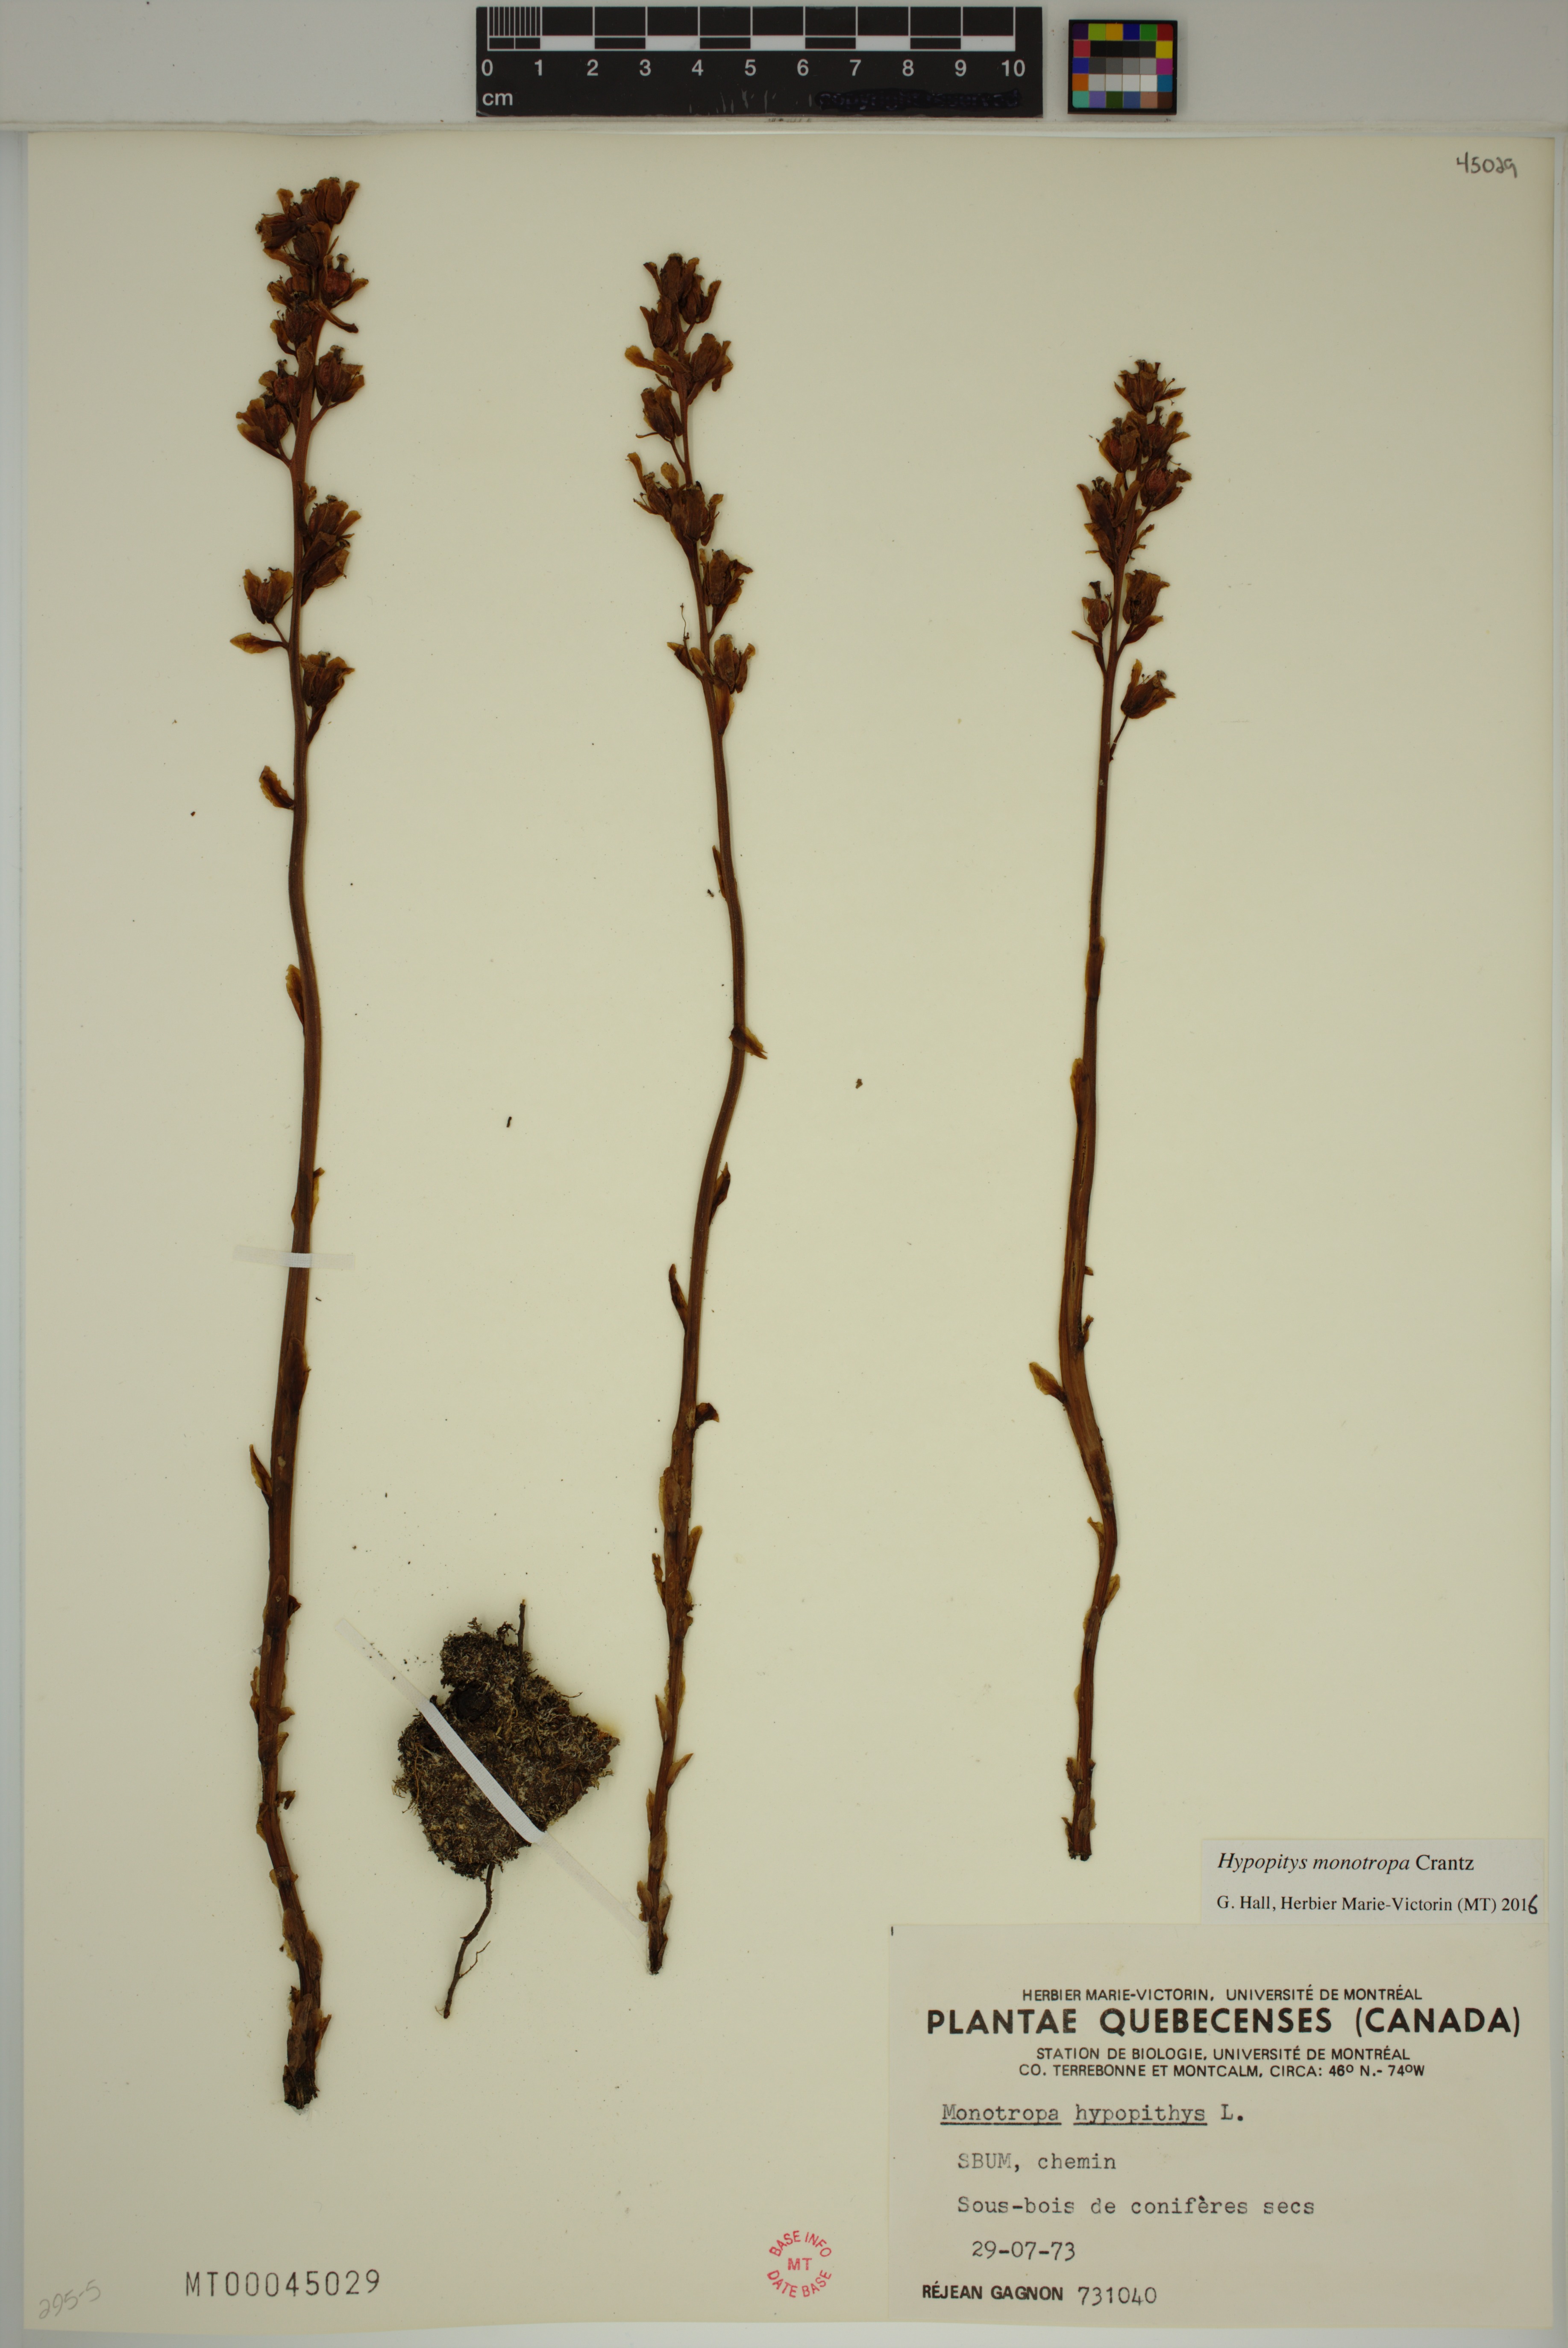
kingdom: Plantae
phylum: Tracheophyta
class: Magnoliopsida
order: Ericales
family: Ericaceae
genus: Hypopitys
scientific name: Hypopitys monotropa
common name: Yellow bird's-nest
